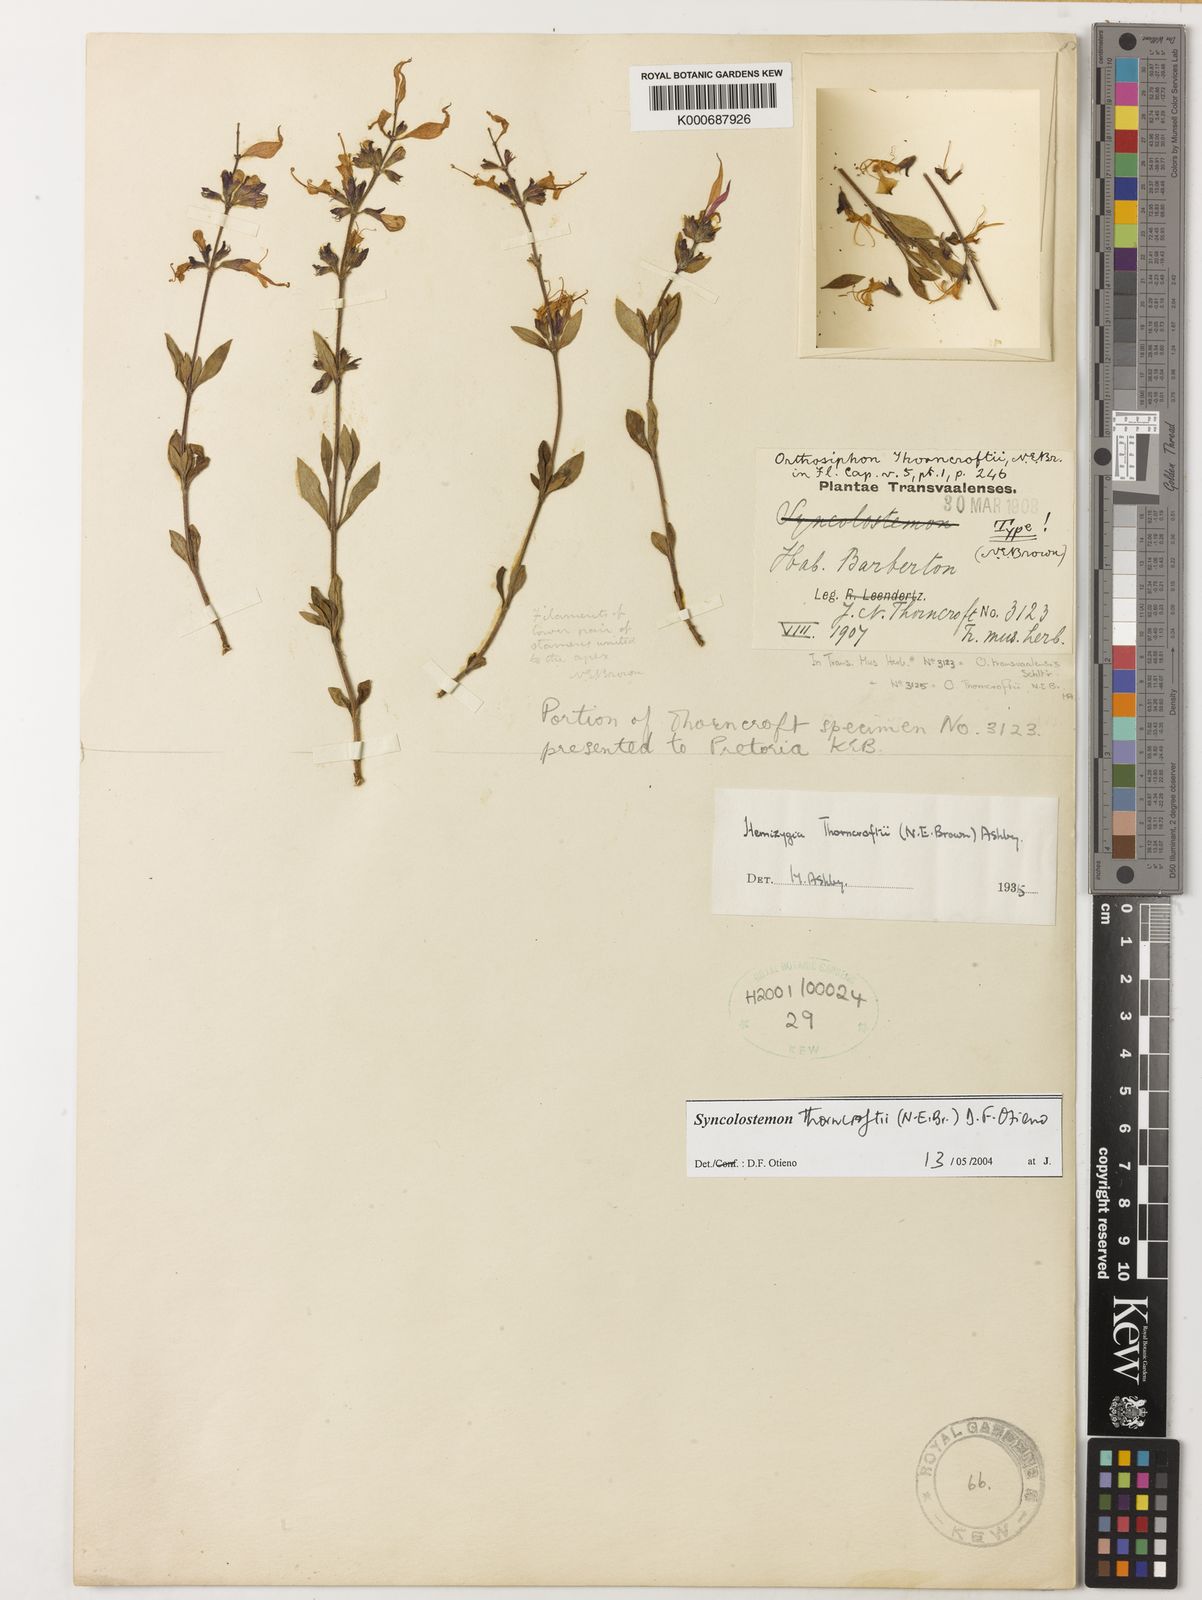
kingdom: Plantae
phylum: Tracheophyta
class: Magnoliopsida
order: Lamiales
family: Lamiaceae
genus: Syncolostemon
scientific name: Syncolostemon thorncroftii
